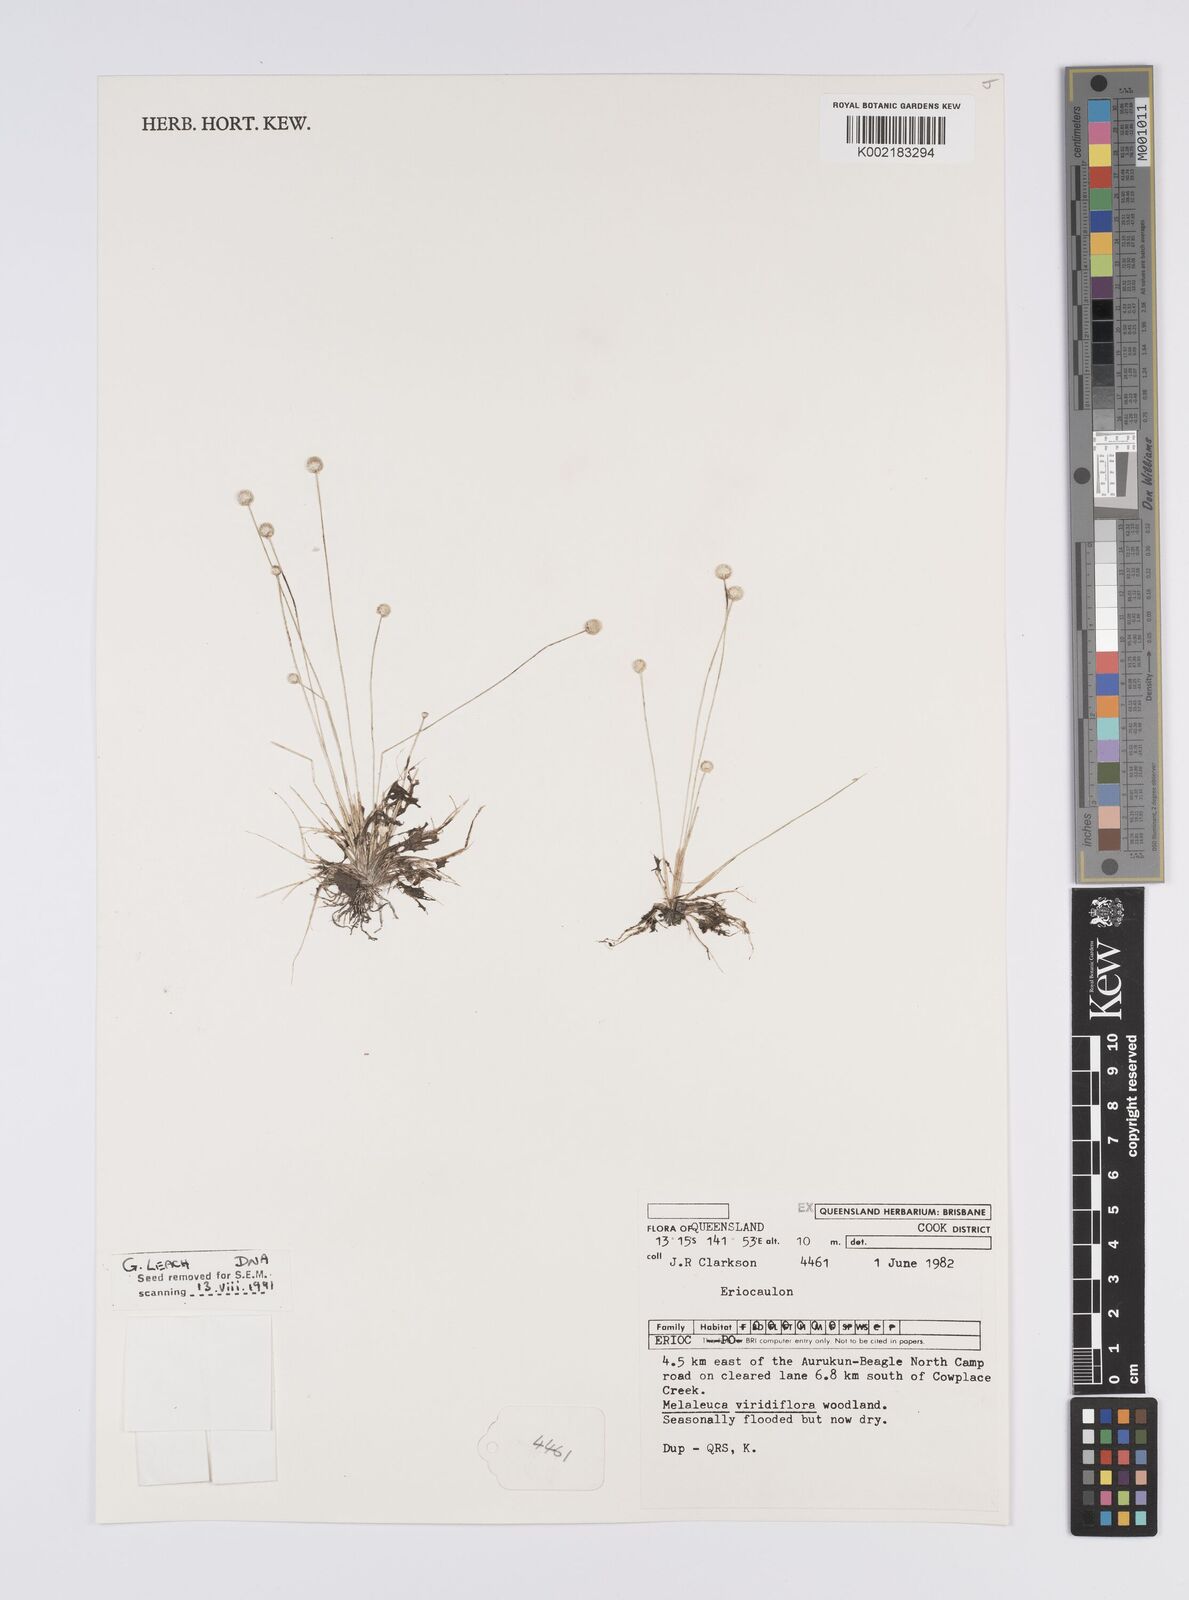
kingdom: Plantae
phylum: Tracheophyta
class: Liliopsida
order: Poales
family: Eriocaulaceae
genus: Eriocaulon
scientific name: Eriocaulon
